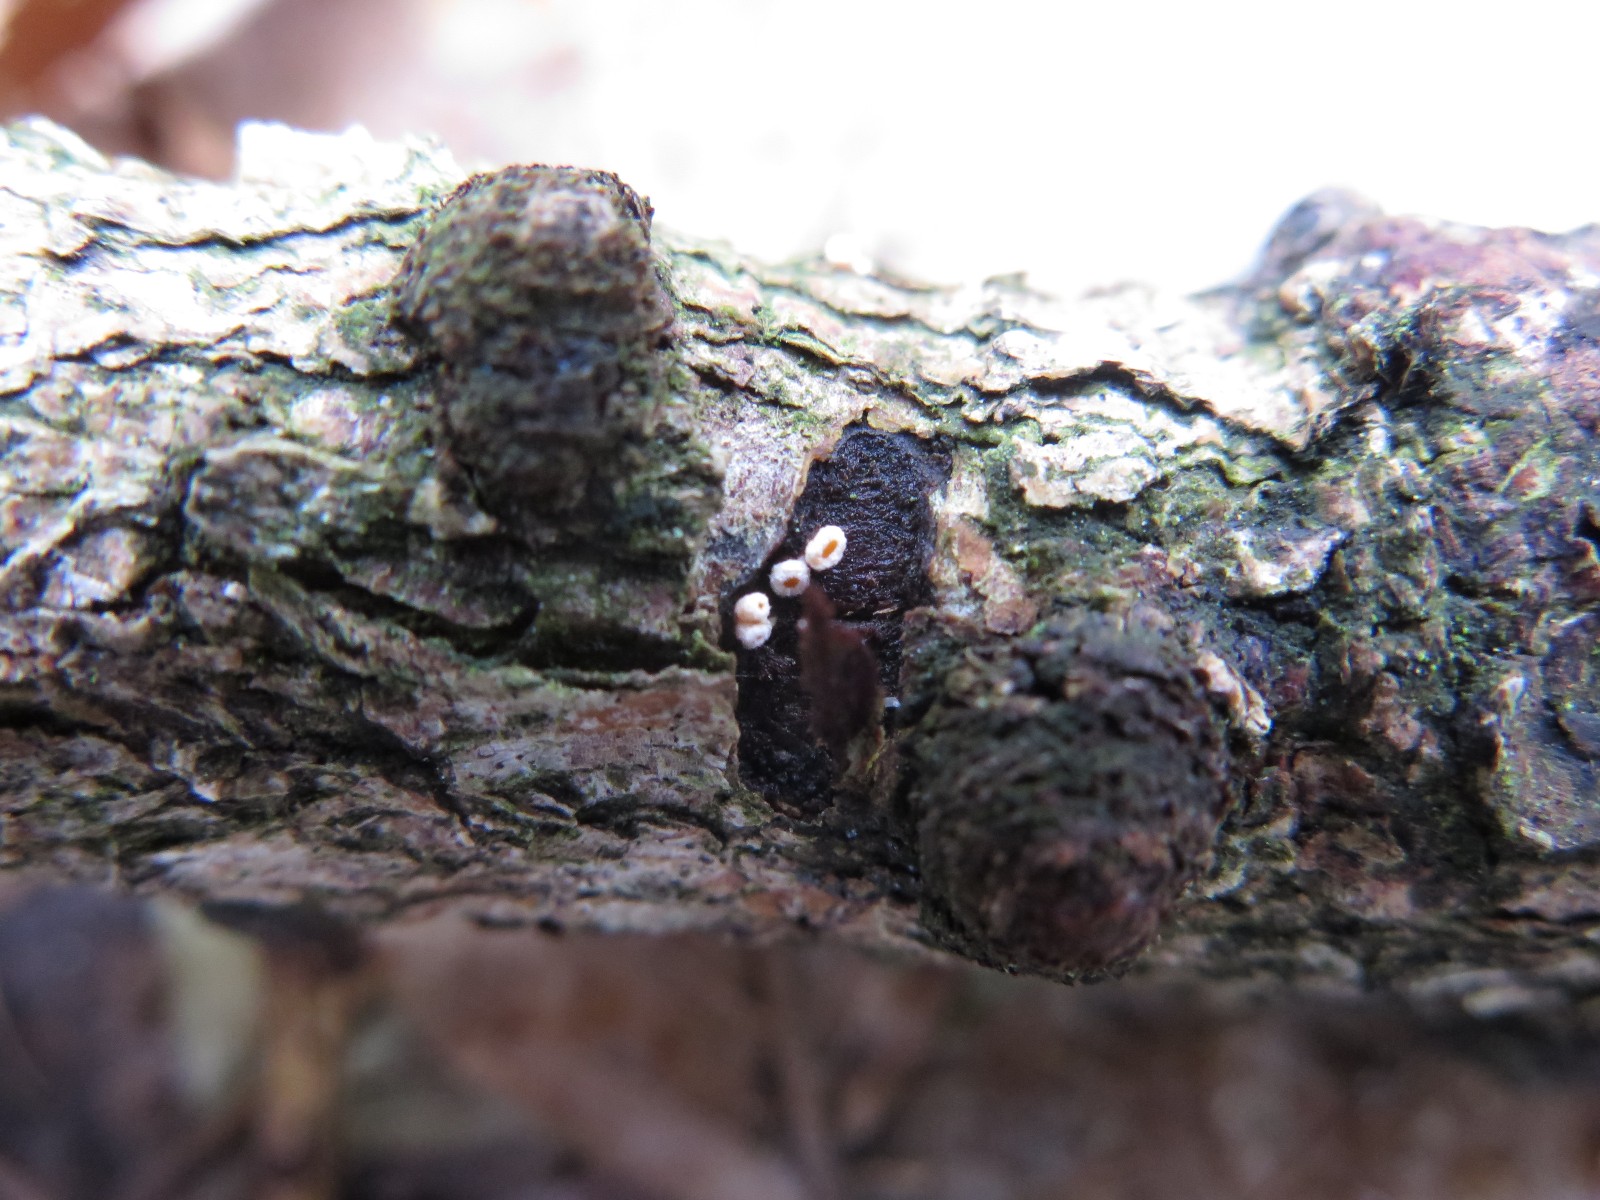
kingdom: Fungi
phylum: Ascomycota
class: Leotiomycetes
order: Helotiales
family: Lachnaceae
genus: Lachnellula
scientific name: Lachnellula
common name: frynseskive
